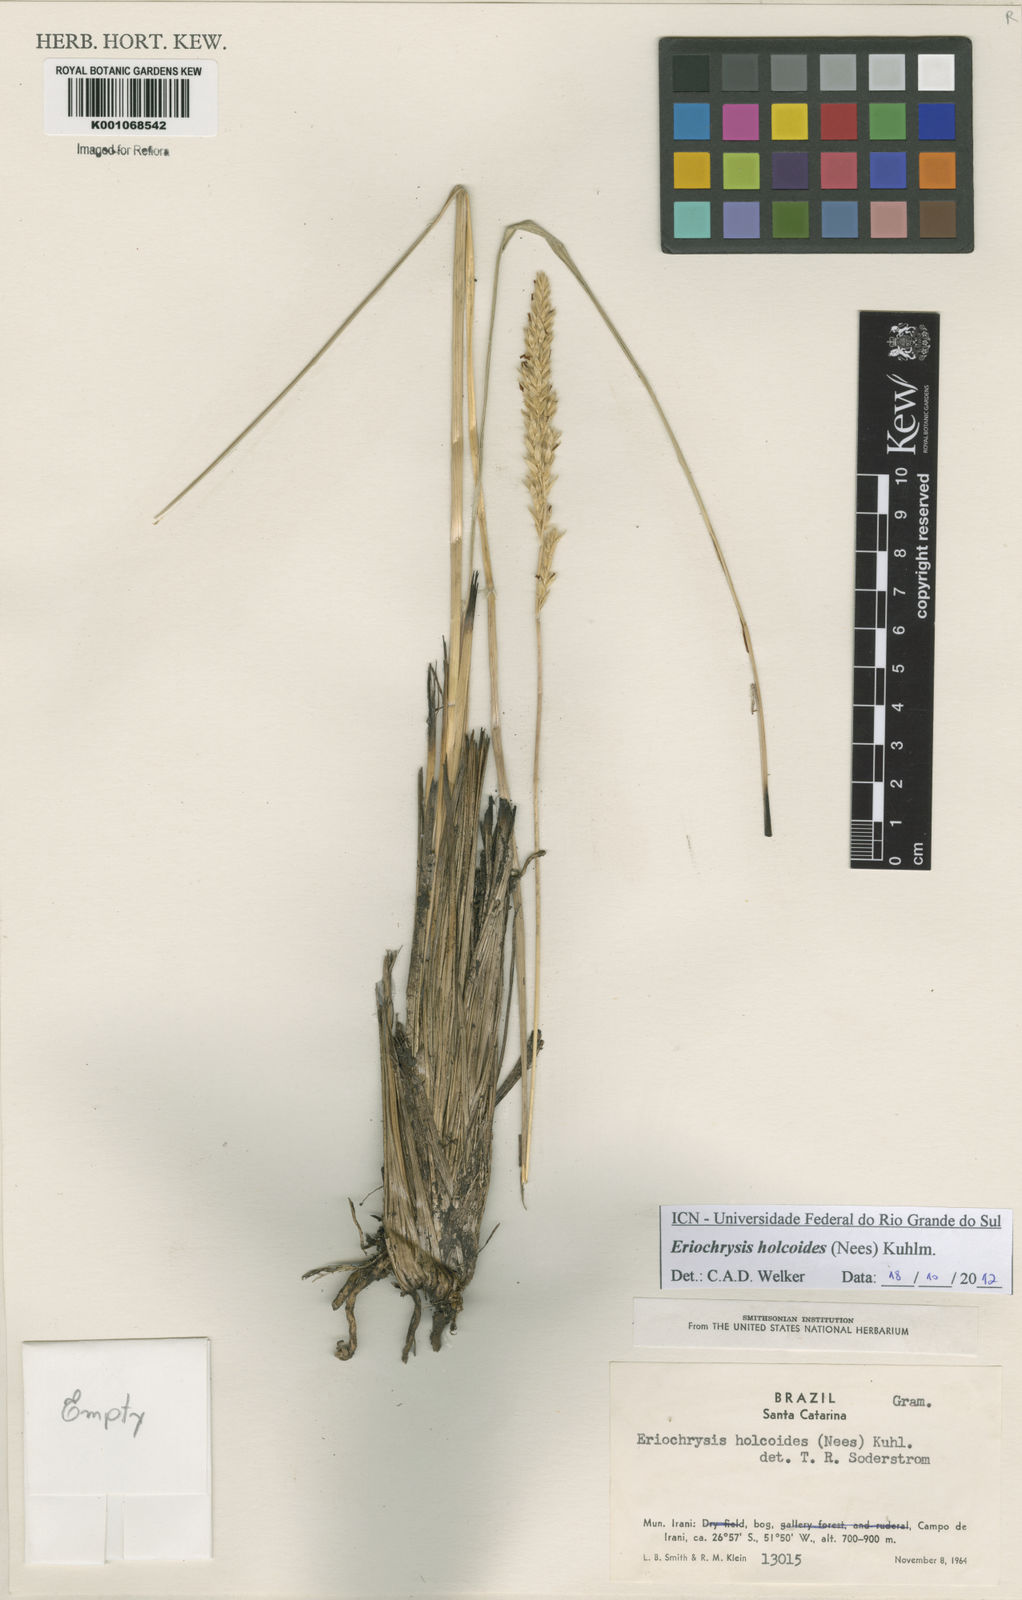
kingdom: Plantae
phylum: Tracheophyta
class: Liliopsida
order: Poales
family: Poaceae
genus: Eriochrysis
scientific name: Eriochrysis holcoides
